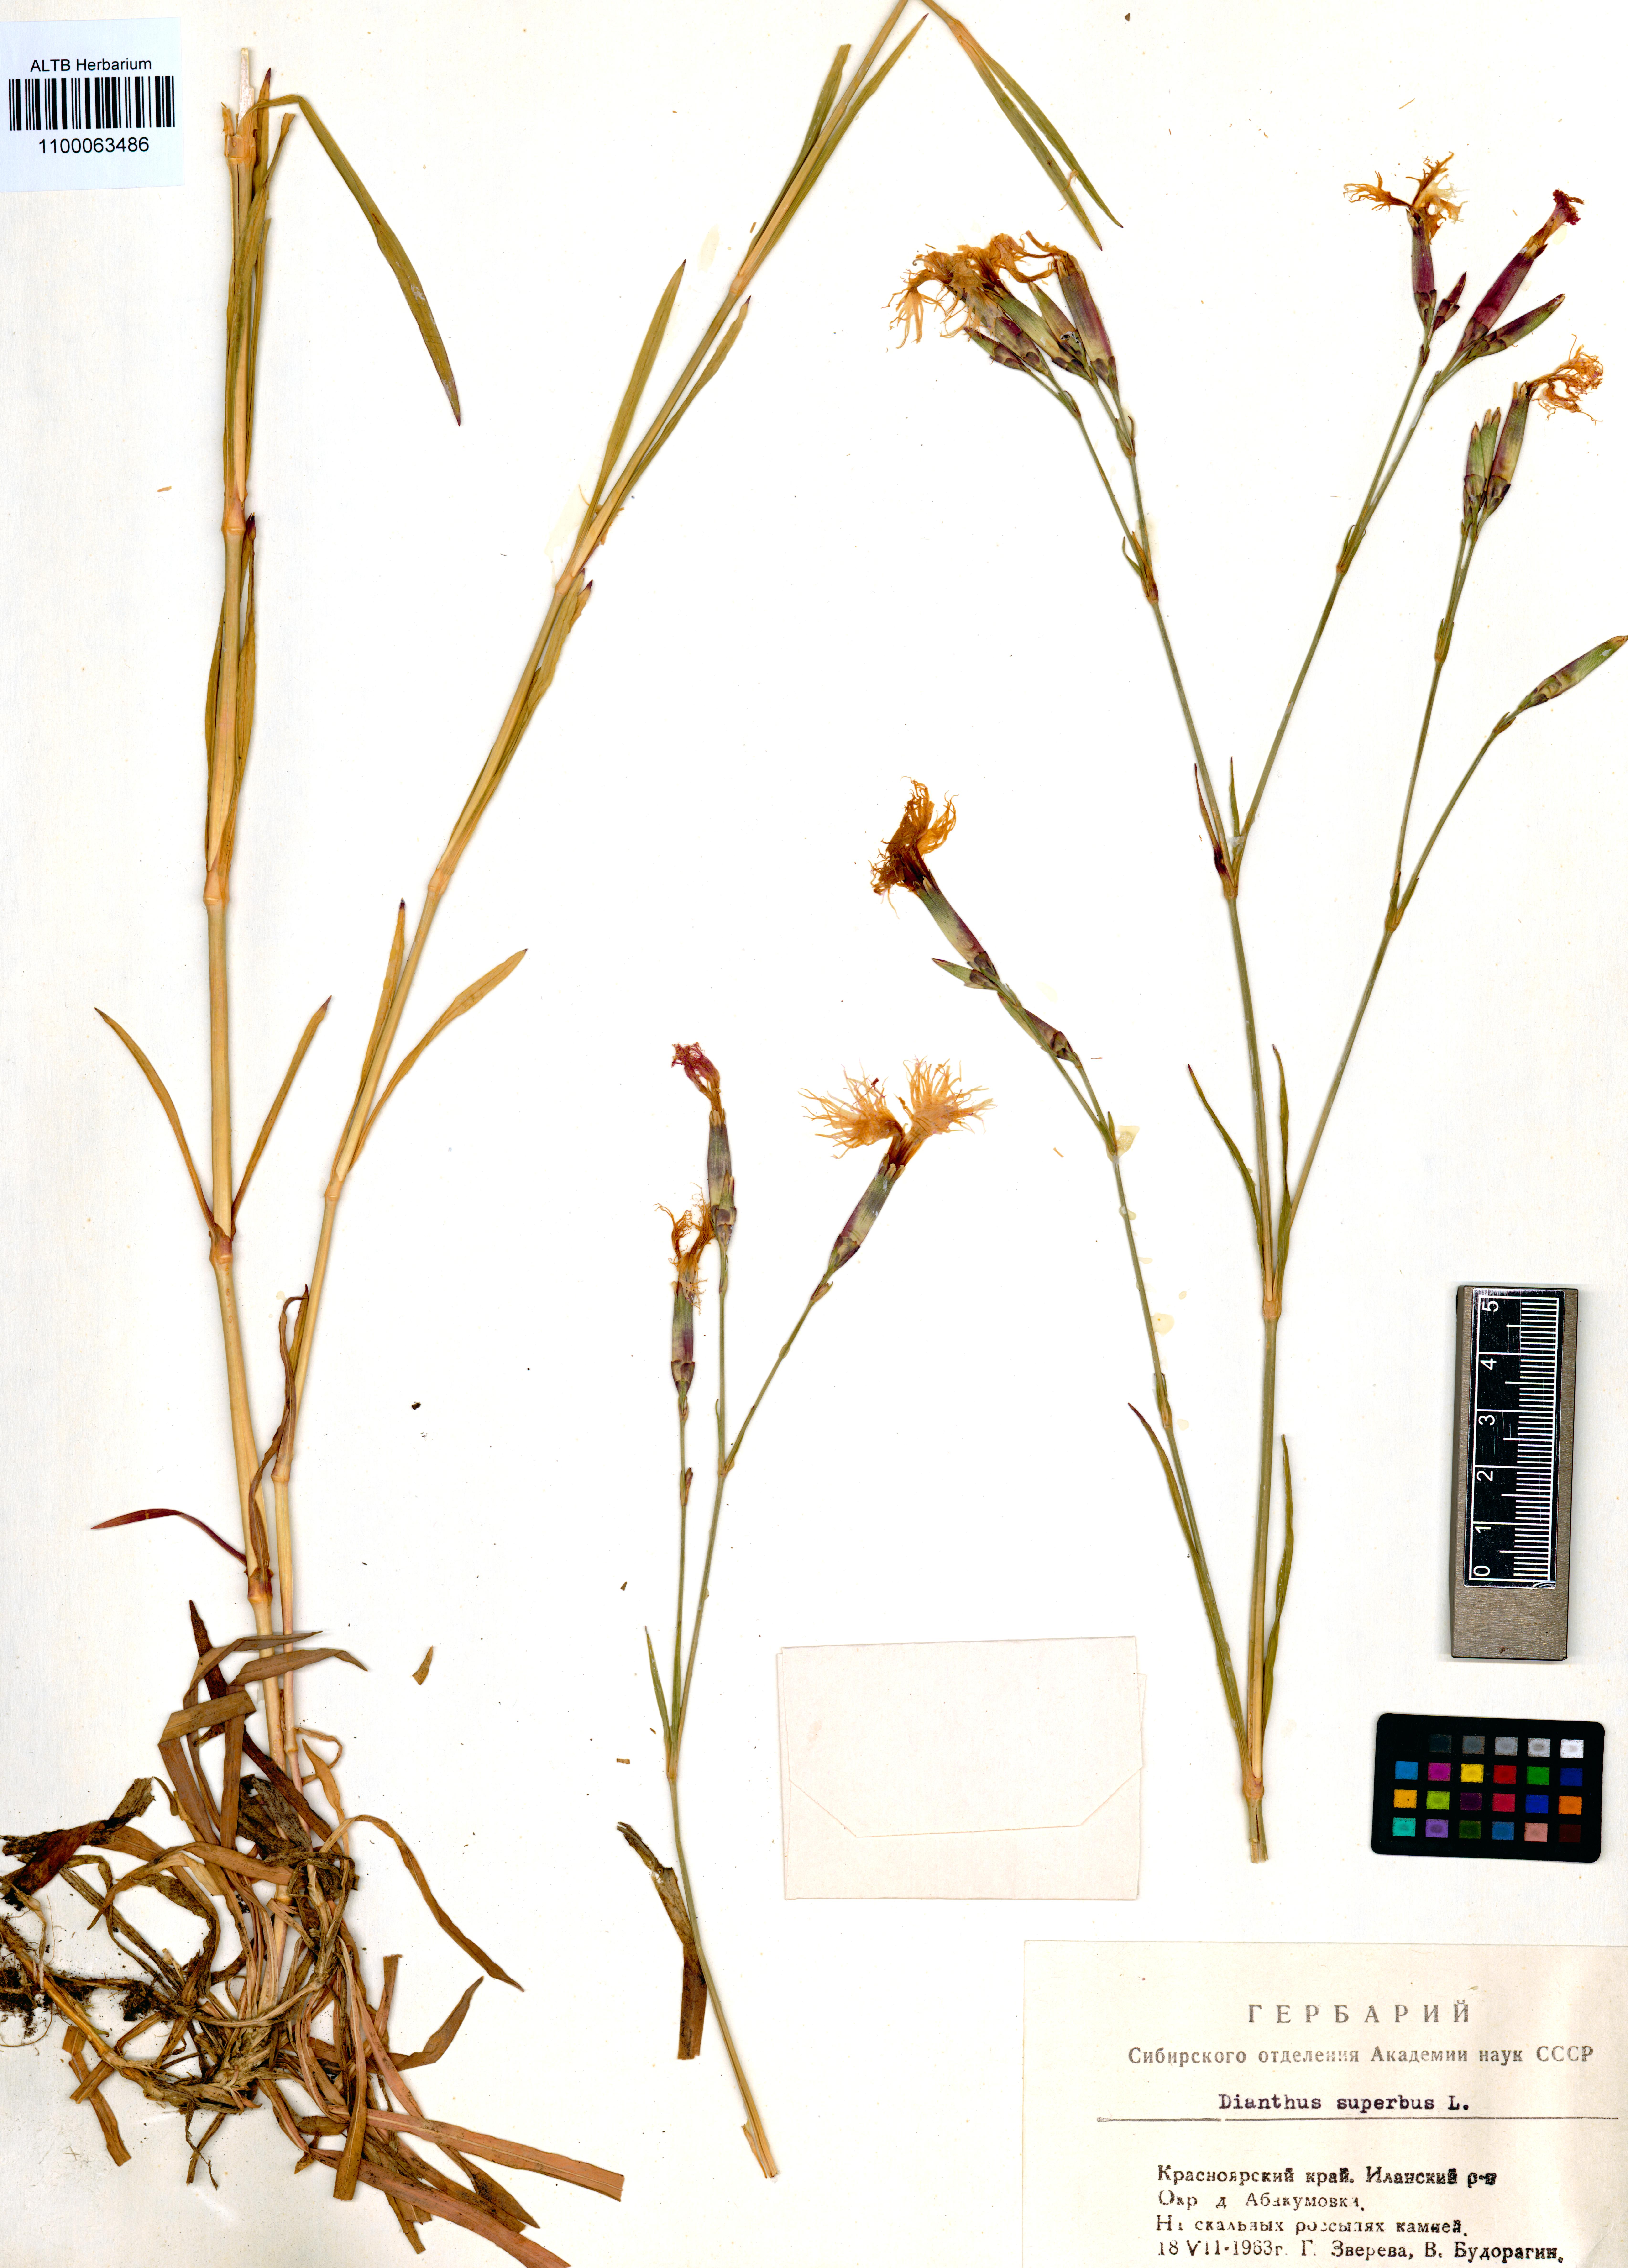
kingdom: Plantae
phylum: Tracheophyta
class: Magnoliopsida
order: Caryophyllales
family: Caryophyllaceae
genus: Dianthus
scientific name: Dianthus superbus
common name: Fringed pink
